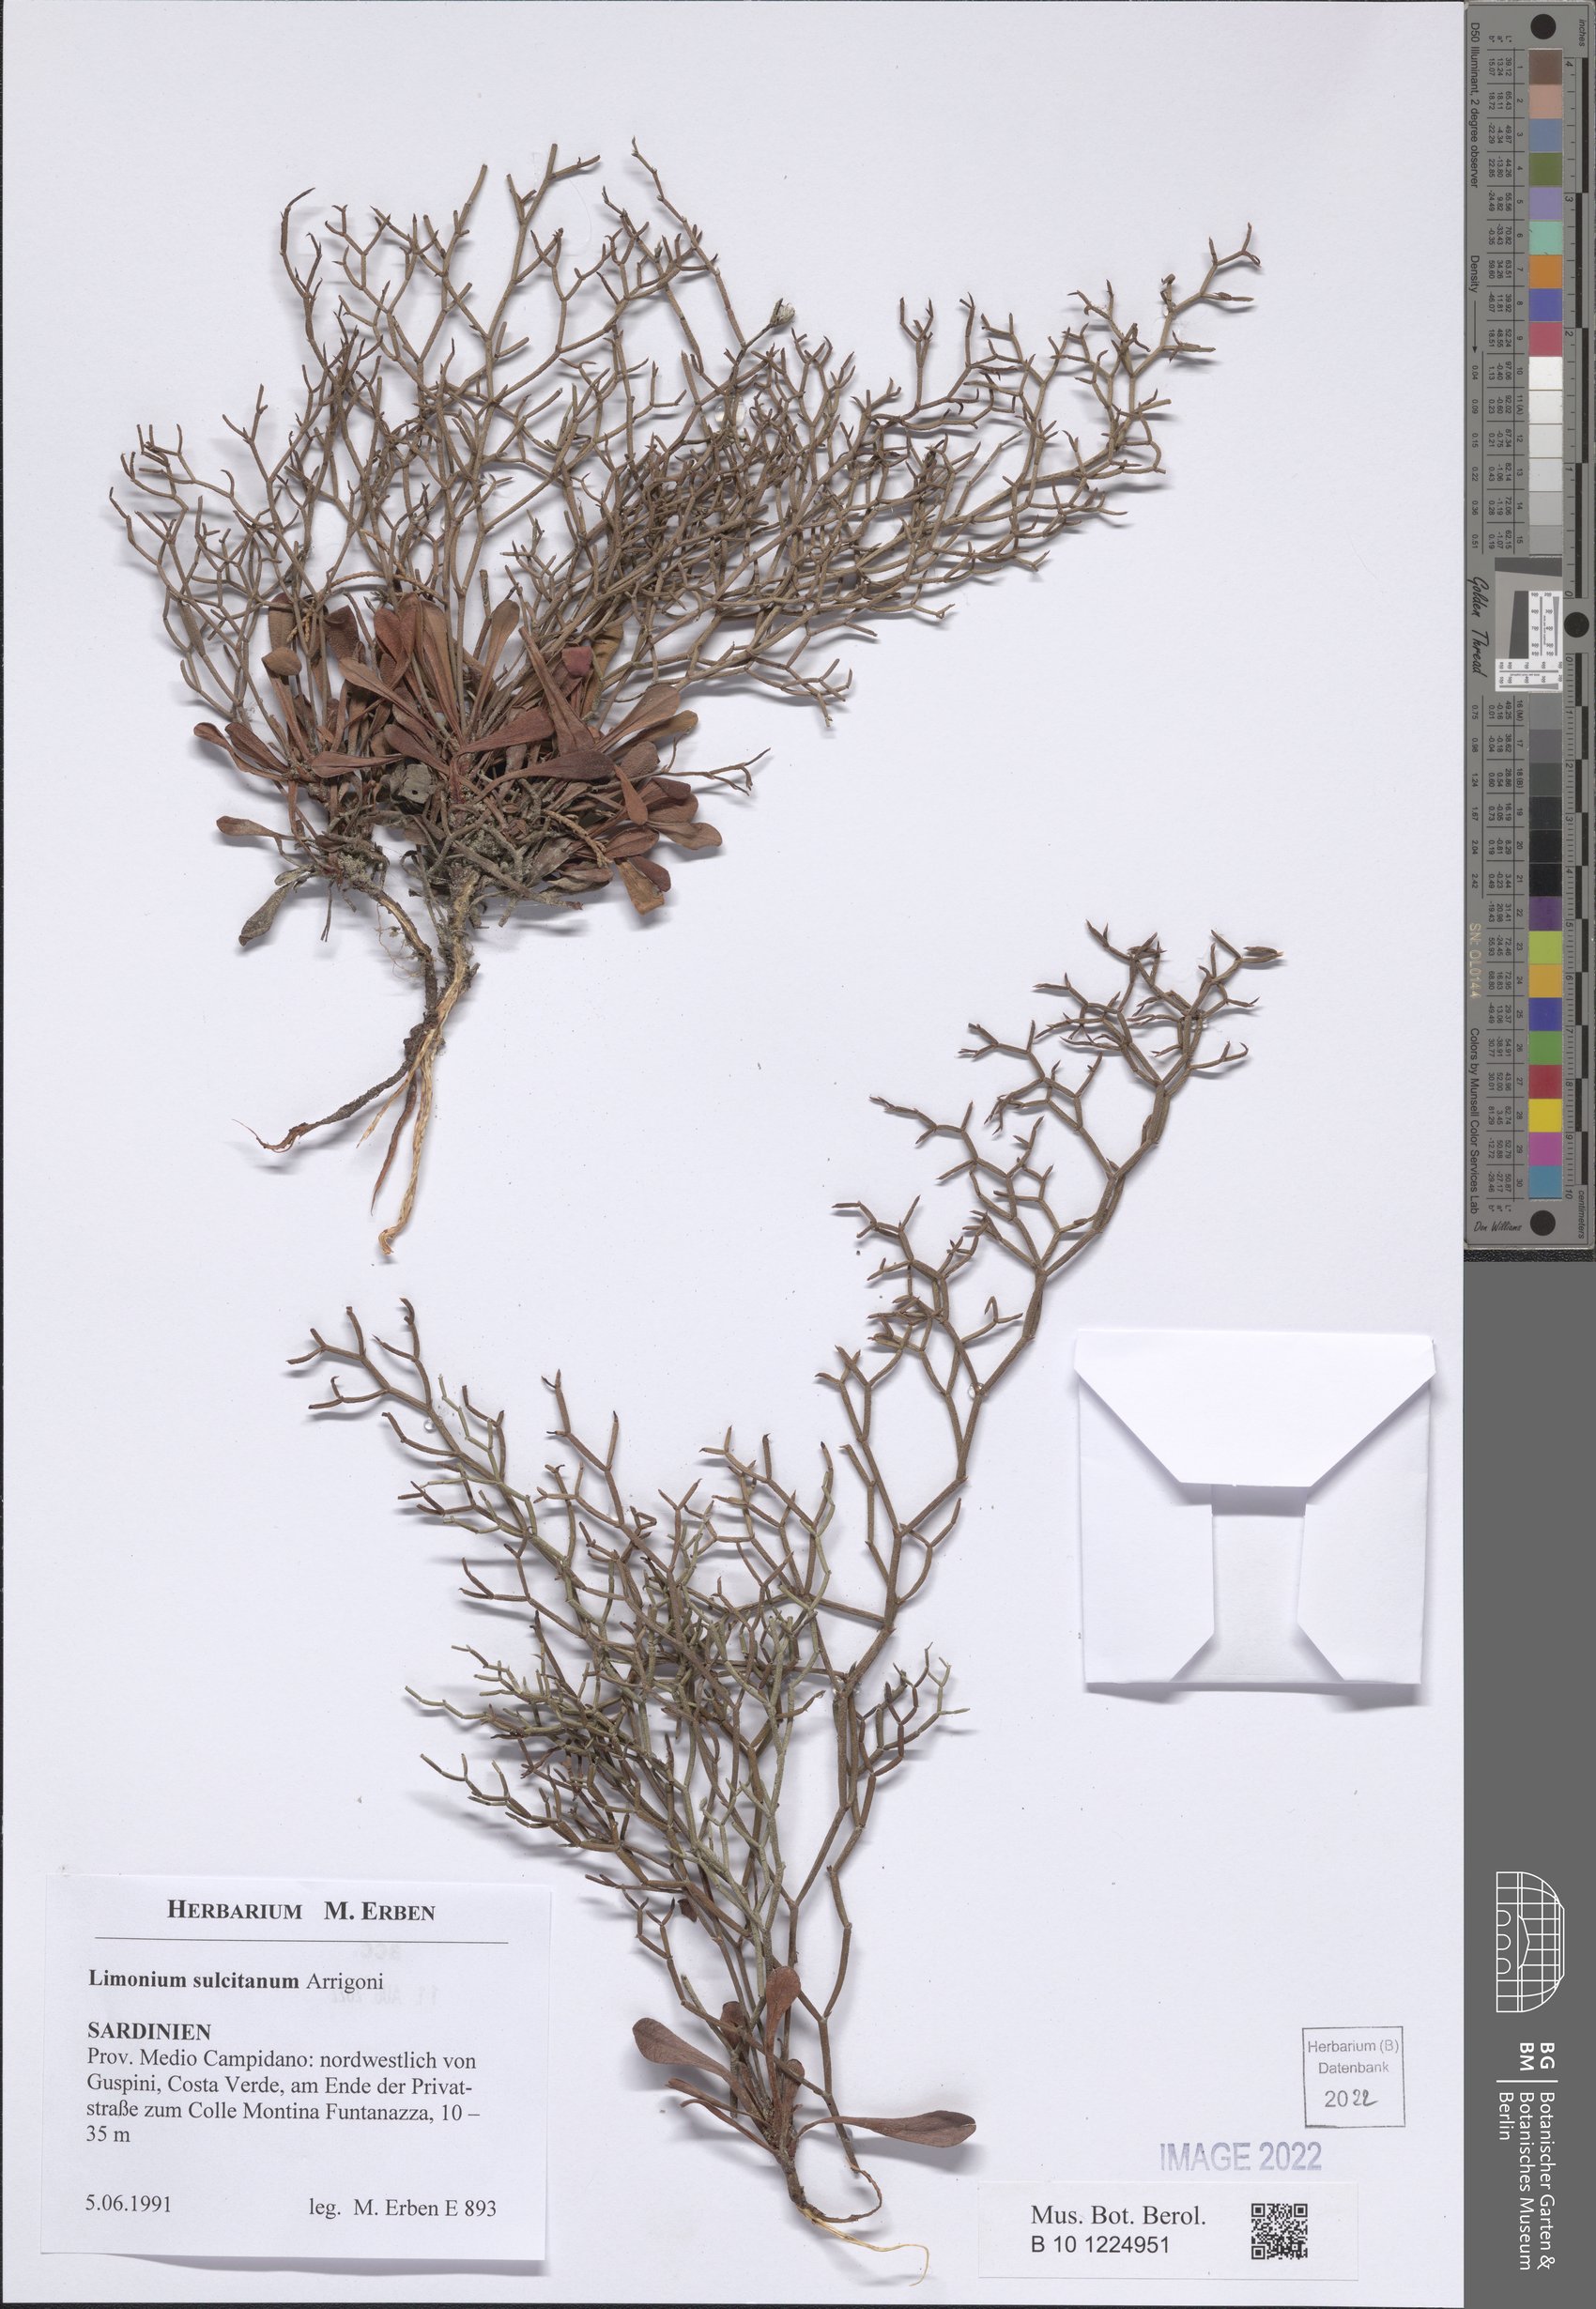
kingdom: Plantae
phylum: Tracheophyta
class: Magnoliopsida
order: Caryophyllales
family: Plumbaginaceae
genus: Limonium
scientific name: Limonium sulcitanum
